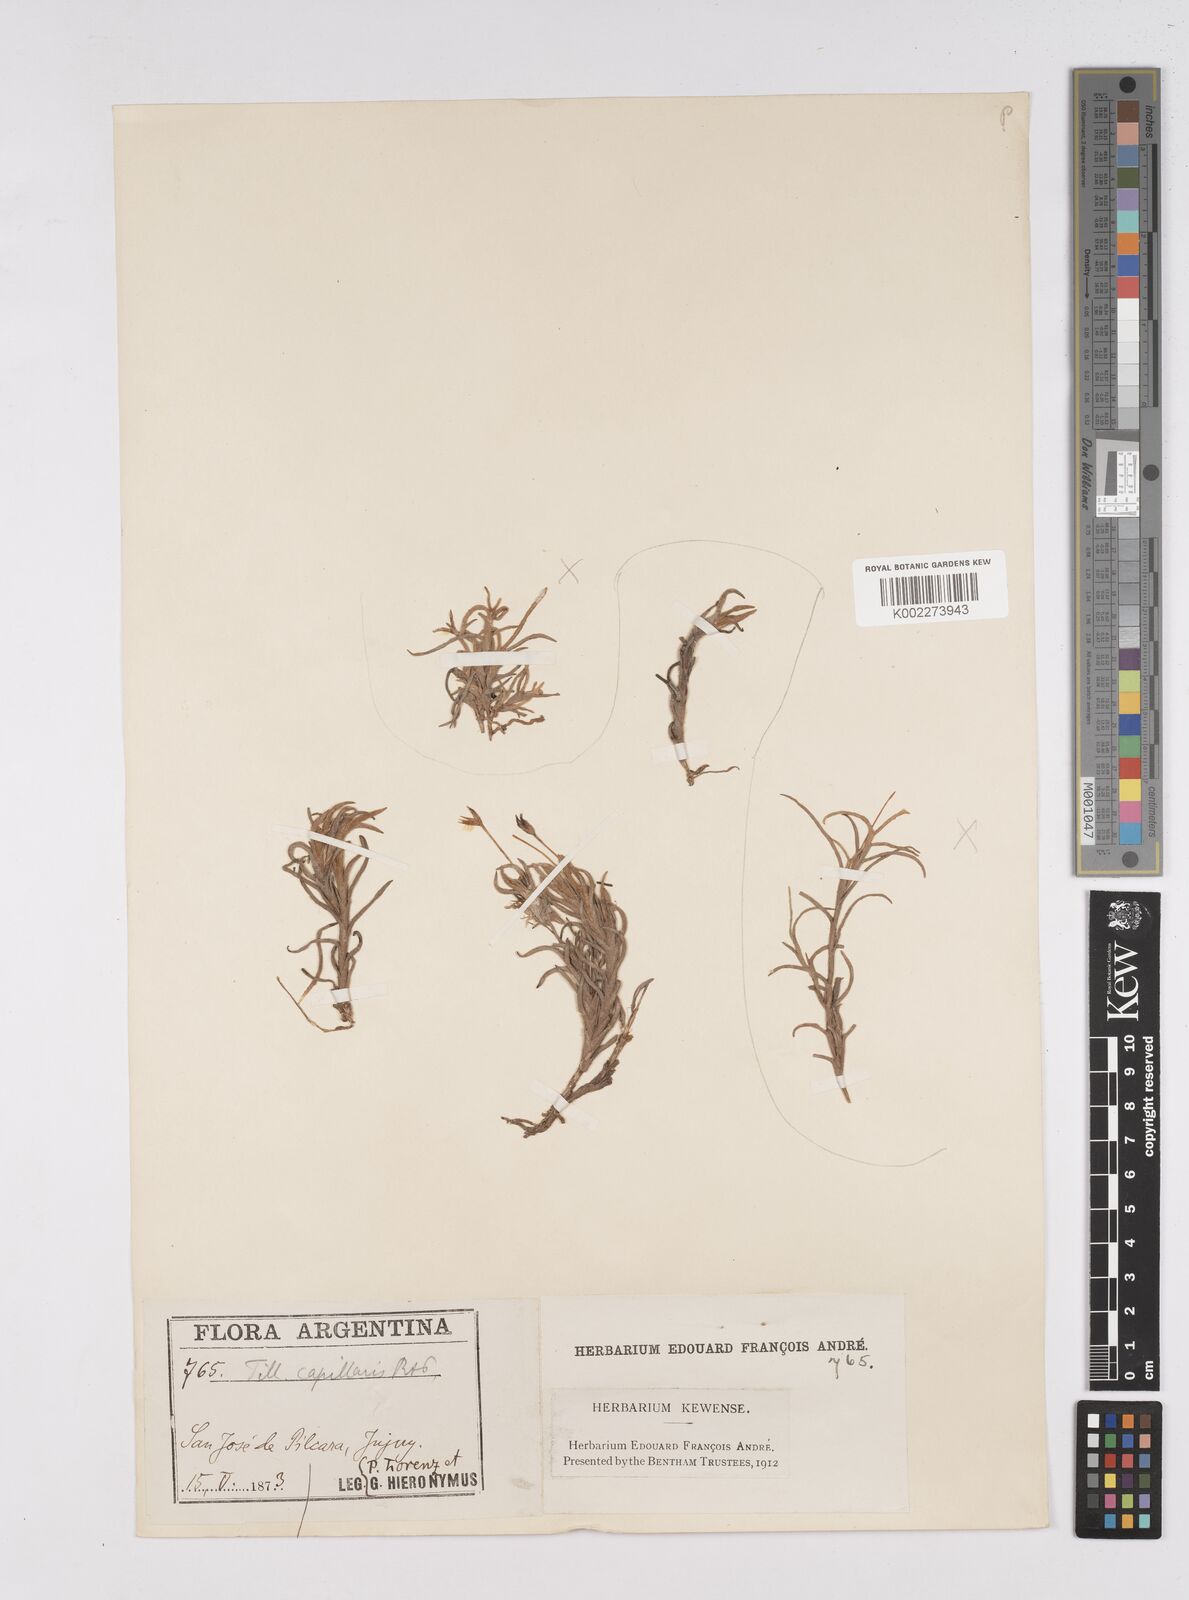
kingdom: Plantae
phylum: Tracheophyta
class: Liliopsida
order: Poales
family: Bromeliaceae
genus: Tillandsia
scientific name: Tillandsia capillaris
